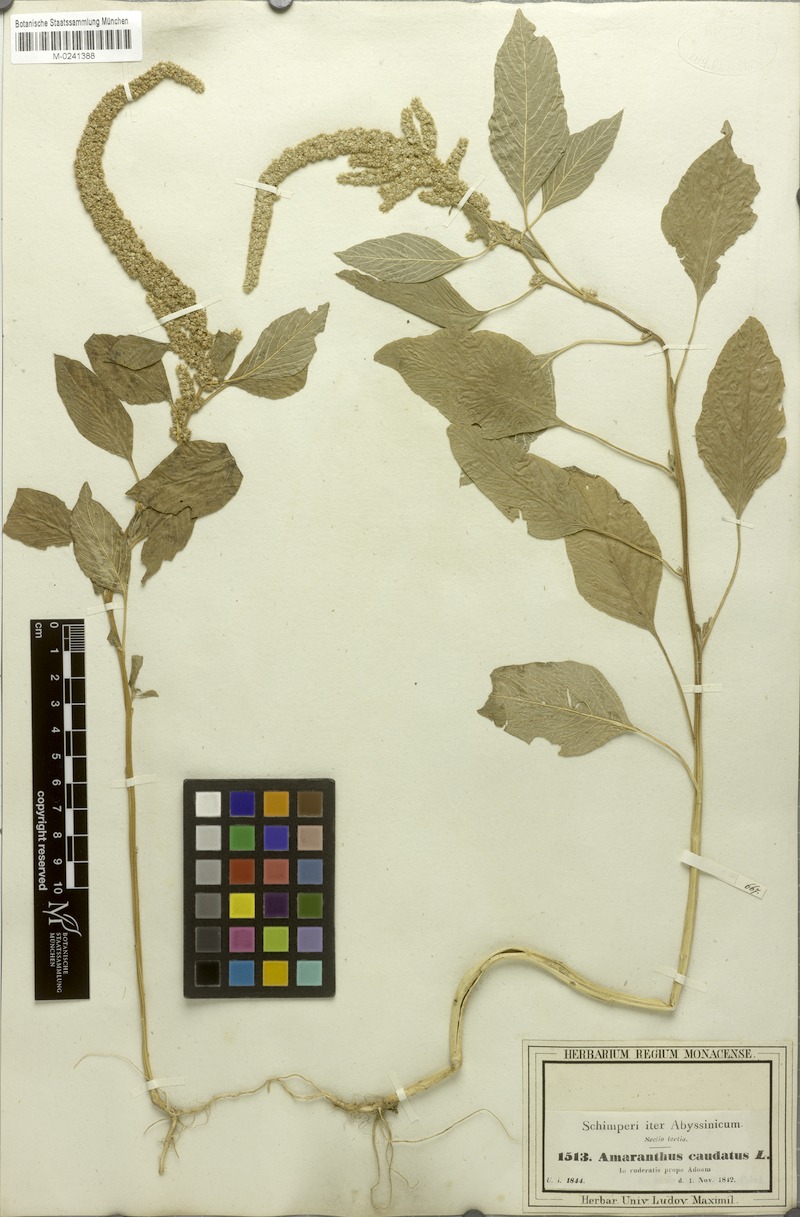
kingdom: Plantae
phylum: Tracheophyta
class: Magnoliopsida
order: Caryophyllales
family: Amaranthaceae
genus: Amaranthus
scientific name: Amaranthus caudatus
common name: Love-lies-bleeding
